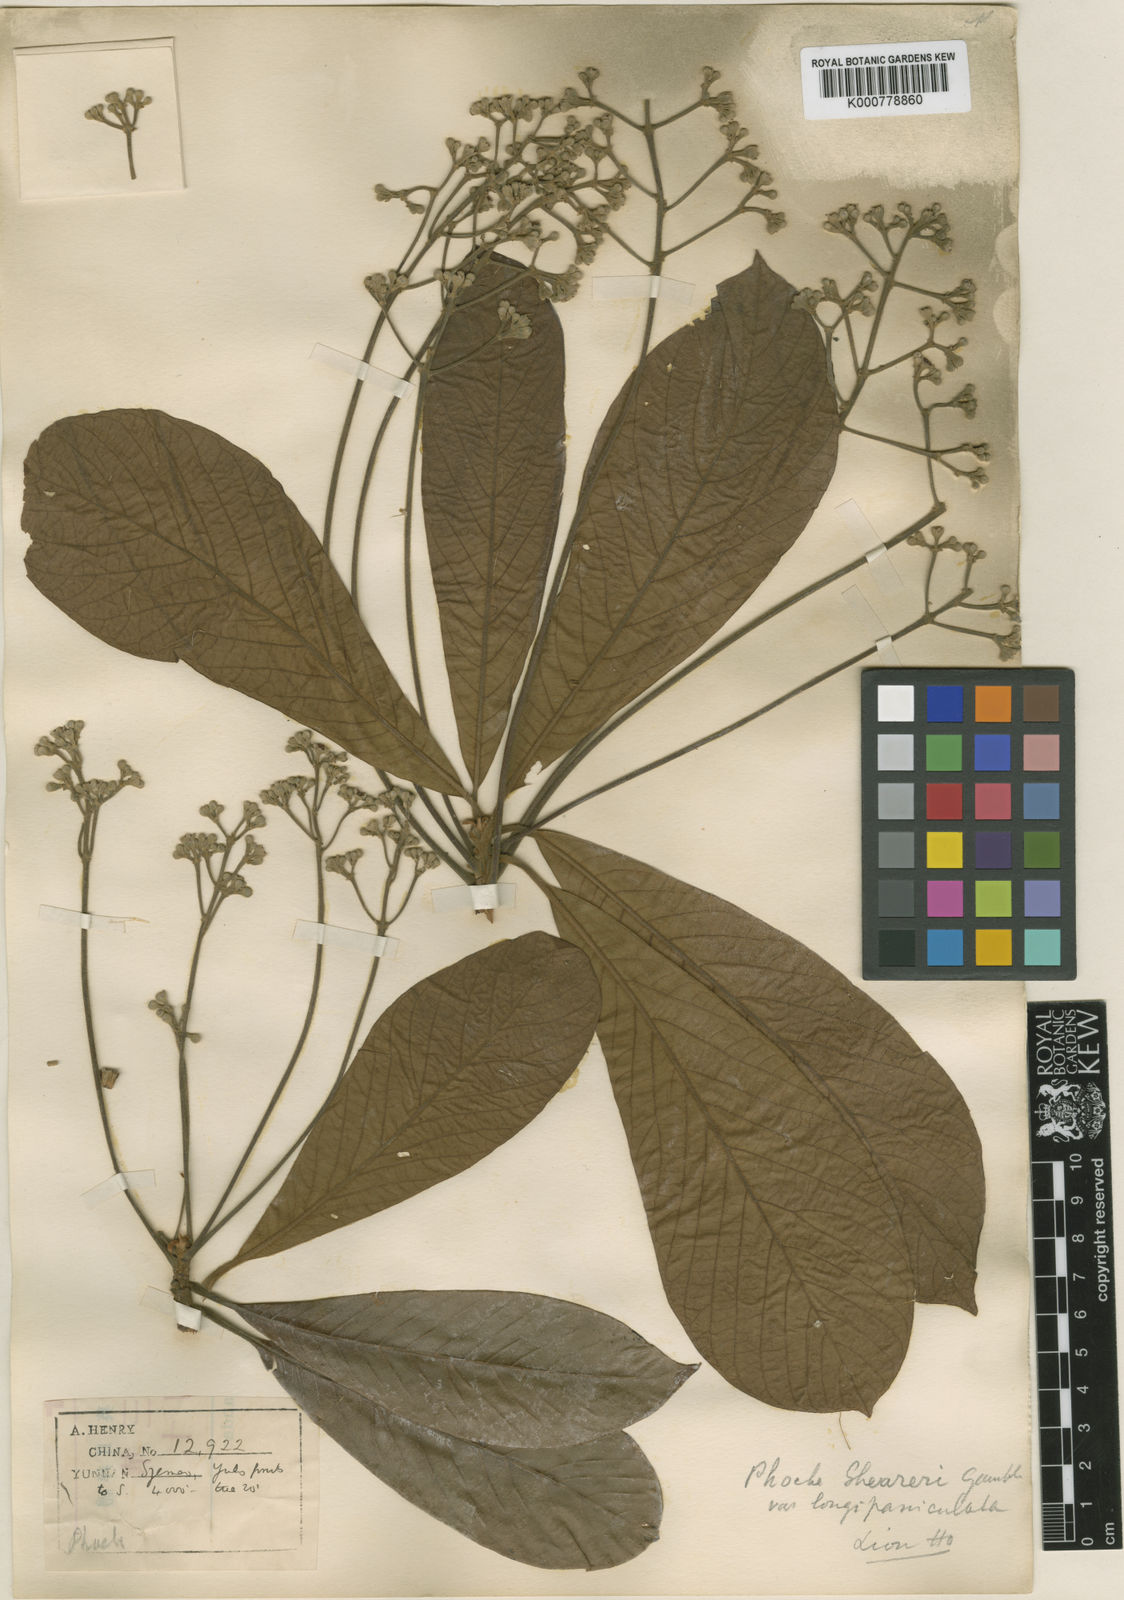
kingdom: Plantae
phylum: Tracheophyta
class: Magnoliopsida
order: Laurales
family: Lauraceae
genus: Phoebe
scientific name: Phoebe sheareri
